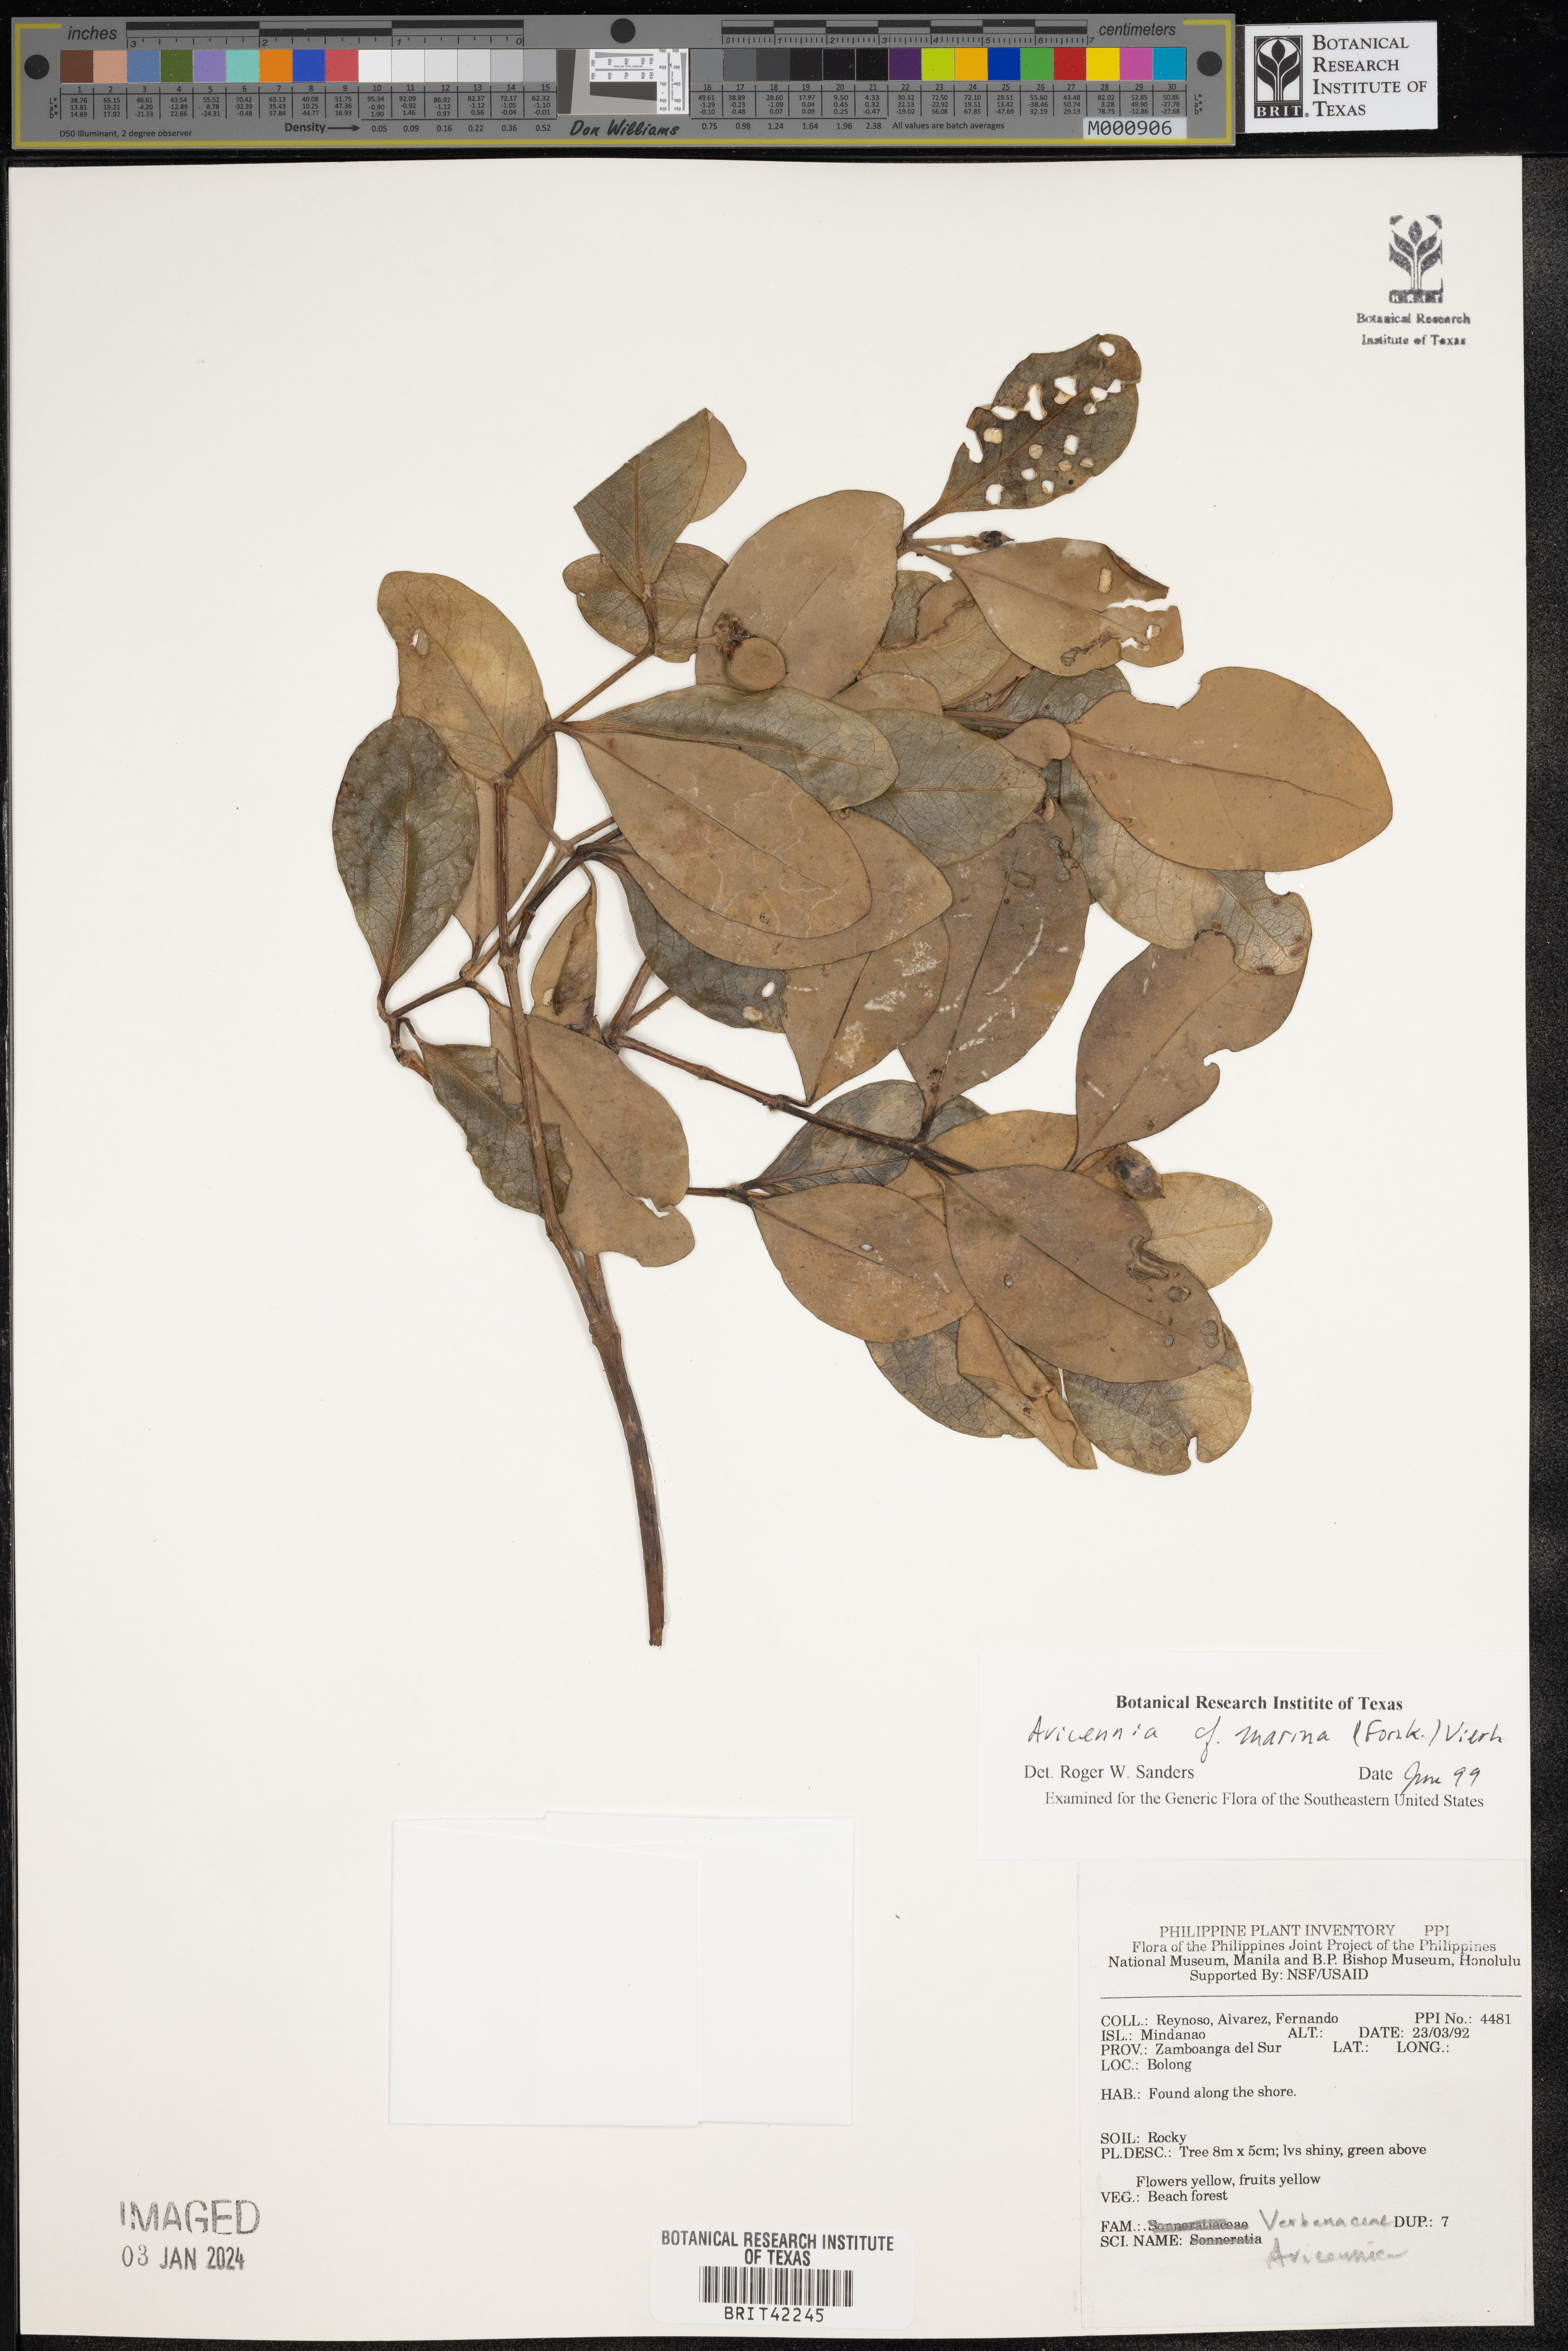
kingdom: Plantae
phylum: Tracheophyta
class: Magnoliopsida
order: Lamiales
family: Acanthaceae
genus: Avicennia
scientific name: Avicennia marina
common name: Gray mangrove
